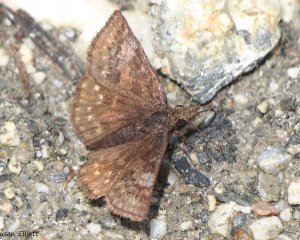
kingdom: Animalia
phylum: Arthropoda
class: Insecta
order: Lepidoptera
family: Hesperiidae
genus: Erynnis
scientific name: Erynnis icelus
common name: Dreamy Duskywing
